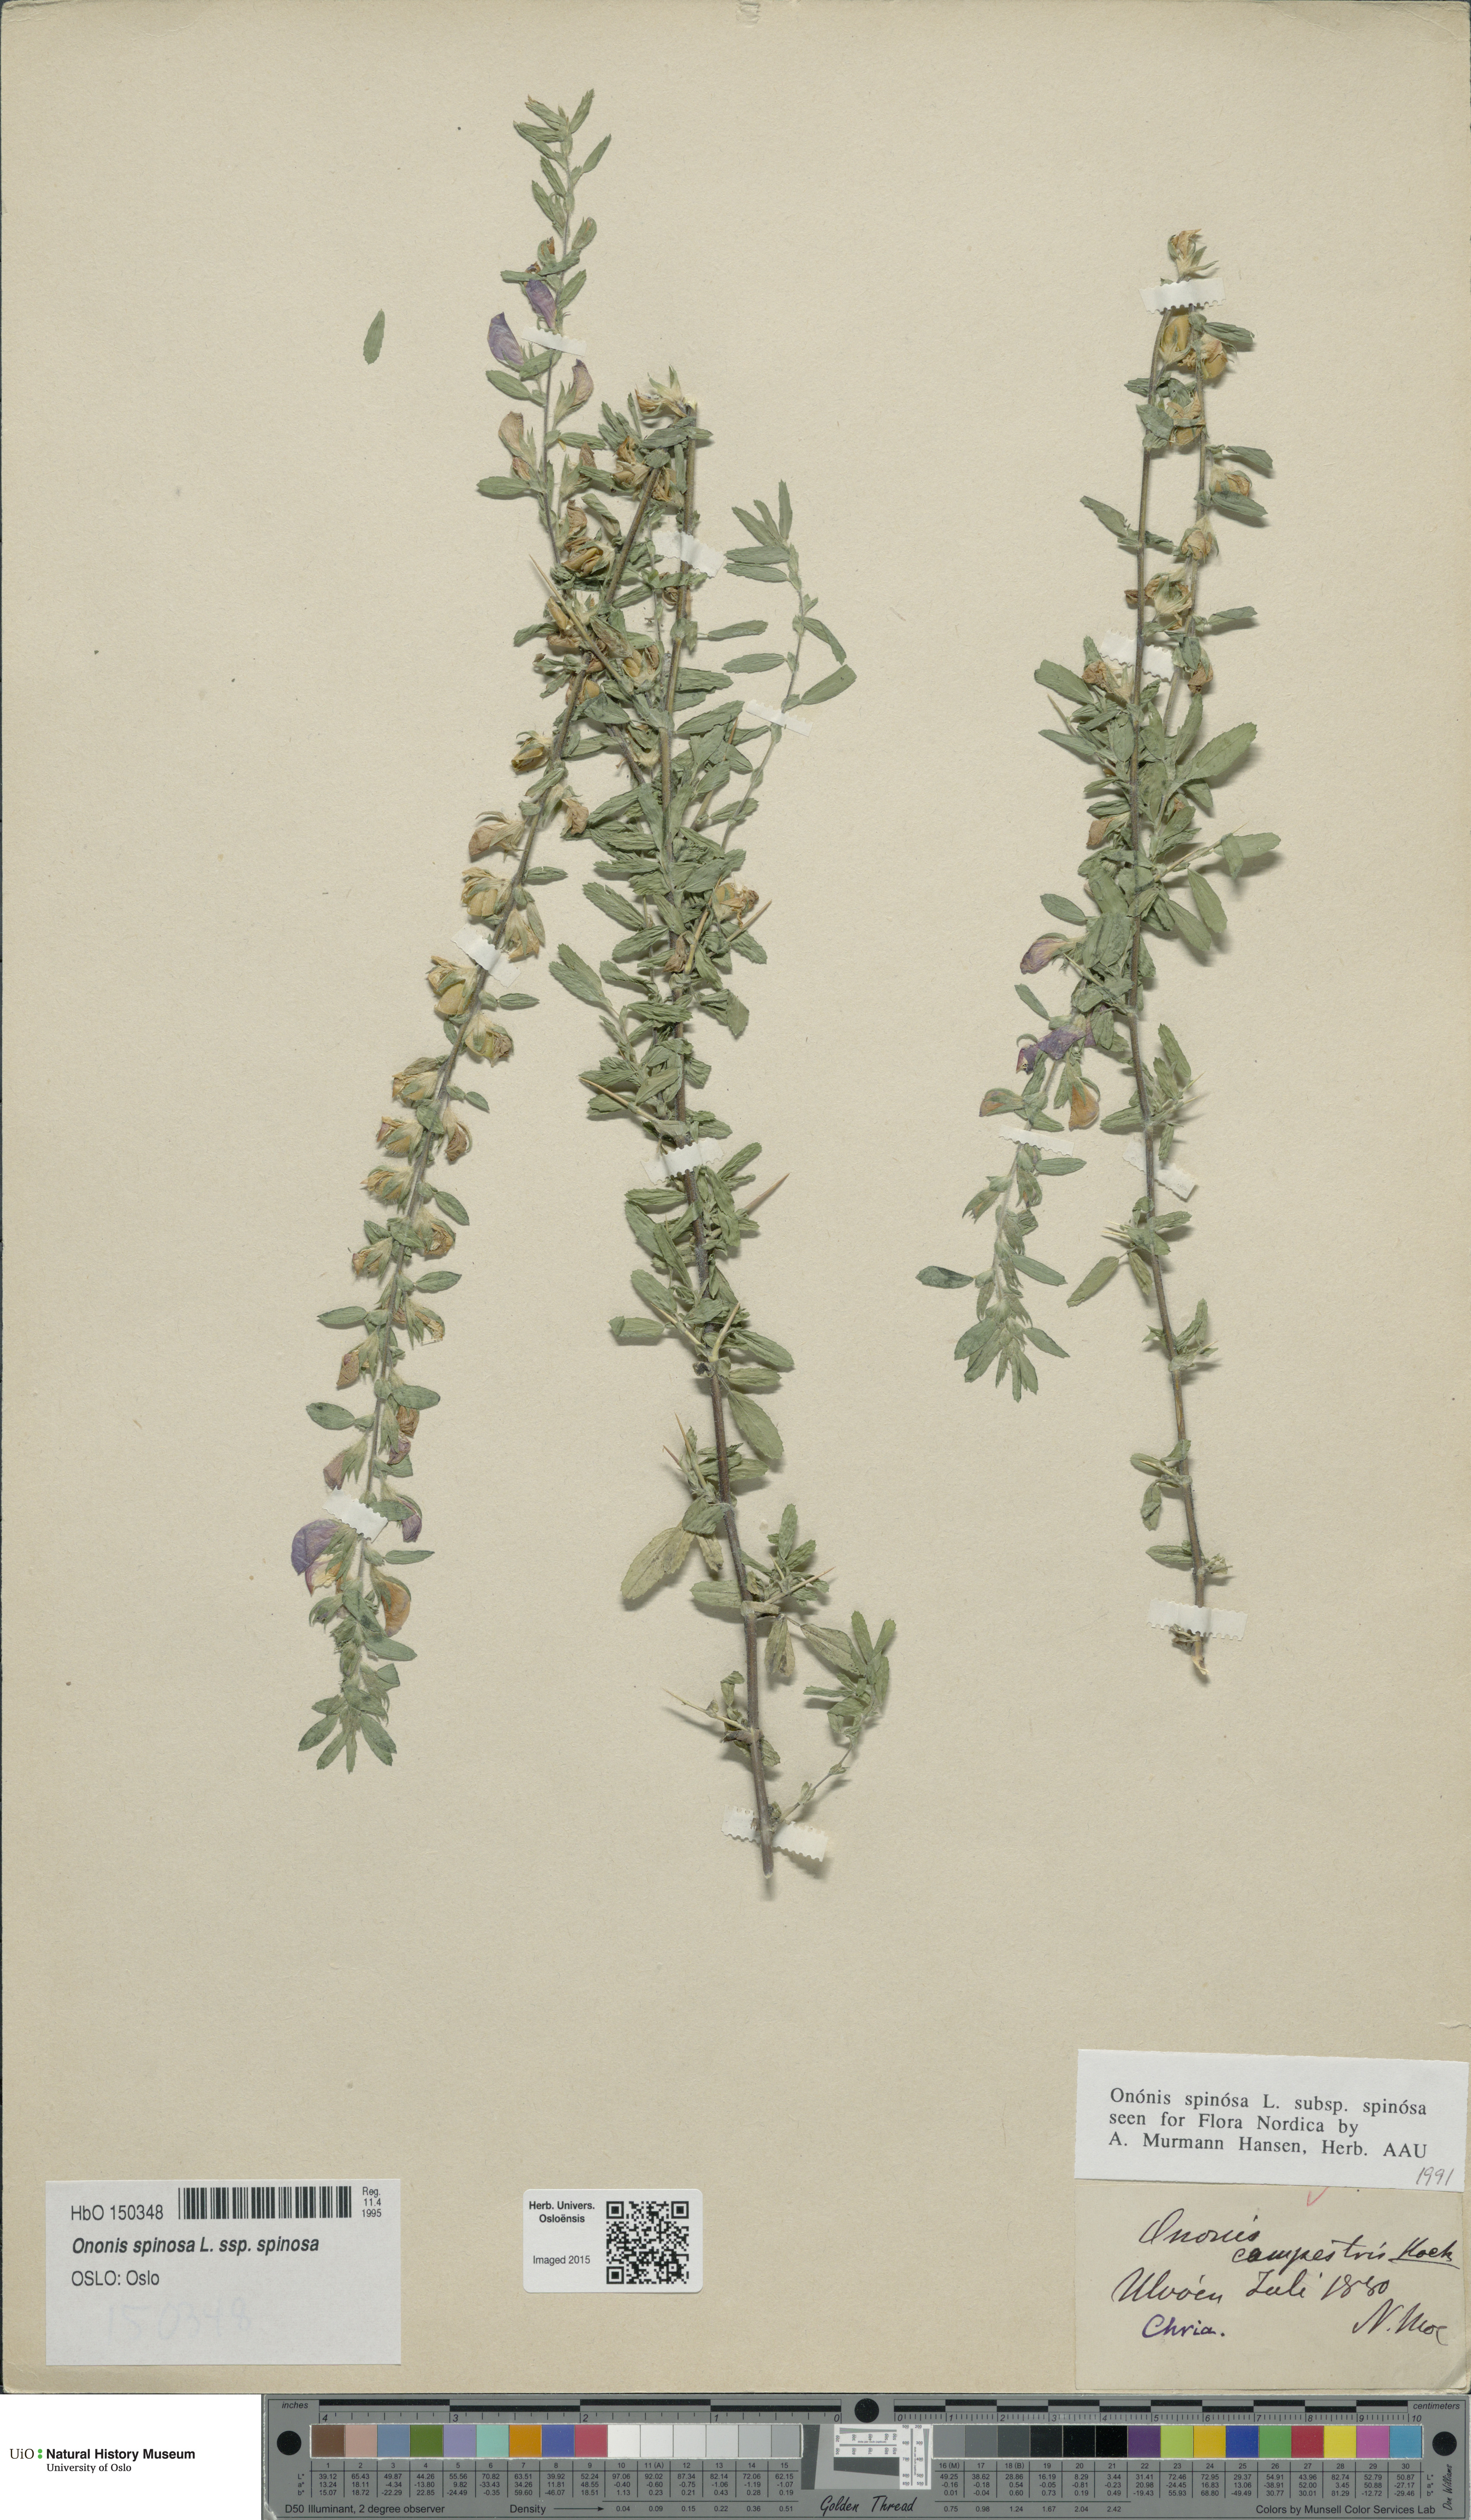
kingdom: Plantae
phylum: Tracheophyta
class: Magnoliopsida
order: Fabales
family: Fabaceae
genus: Ononis
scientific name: Ononis spinosa
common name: Spiny restharrow
